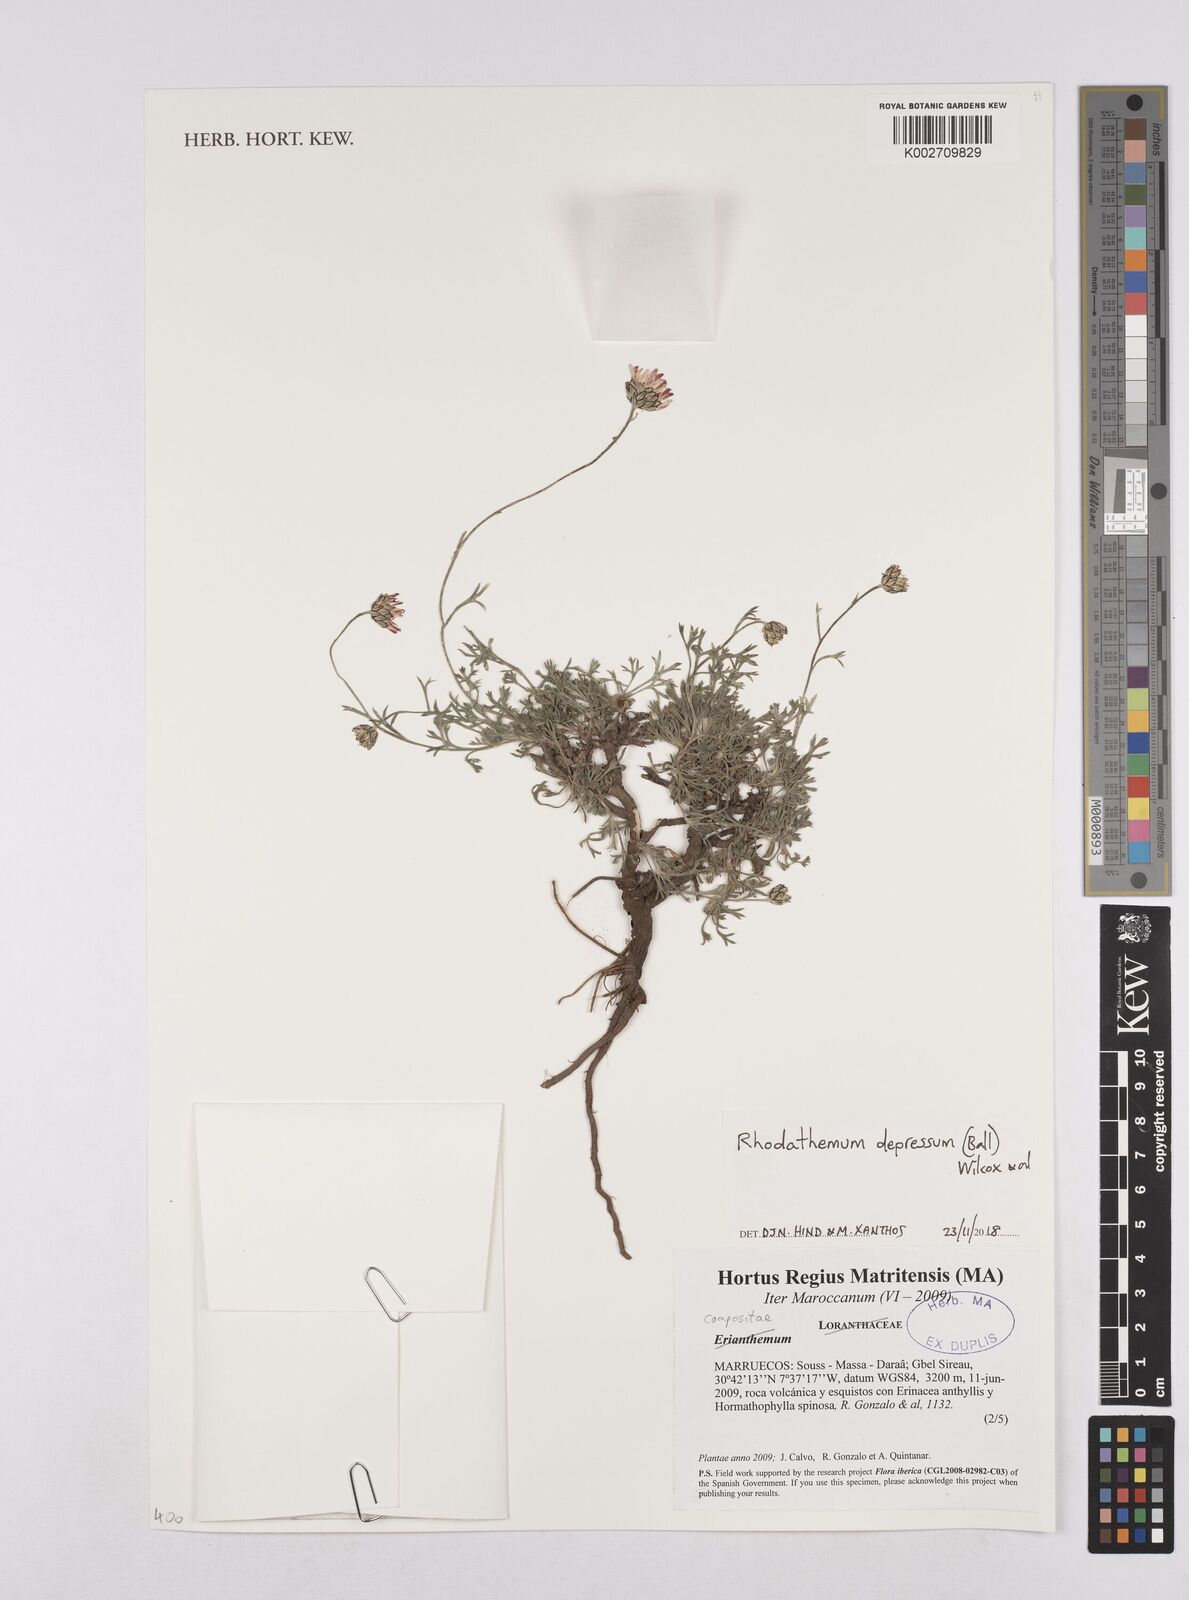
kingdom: Plantae
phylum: Tracheophyta
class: Magnoliopsida
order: Asterales
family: Asteraceae
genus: Rhodanthemum
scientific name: Rhodanthemum depressum
